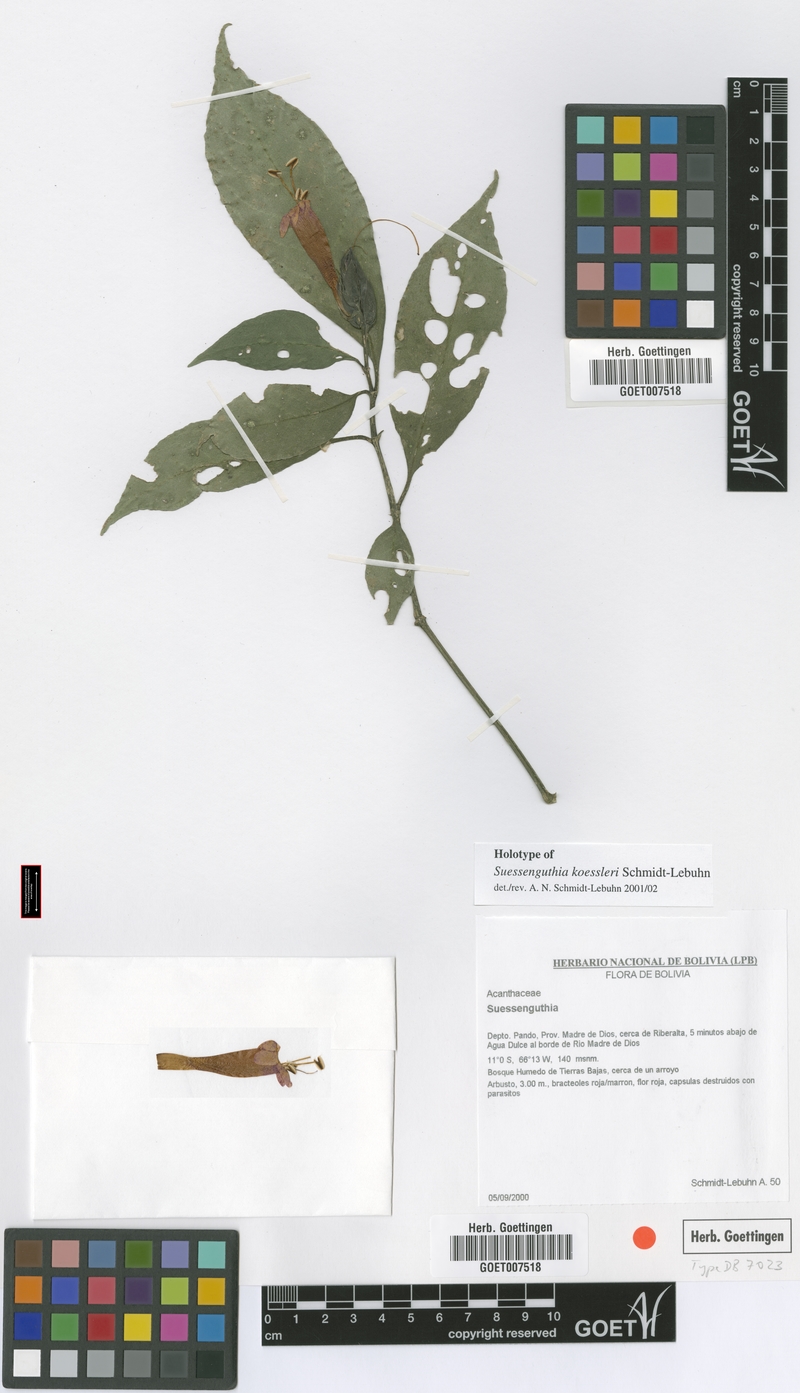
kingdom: Plantae
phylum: Tracheophyta
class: Magnoliopsida
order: Lamiales
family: Acanthaceae
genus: Suessenguthia
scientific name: Suessenguthia koessleri
